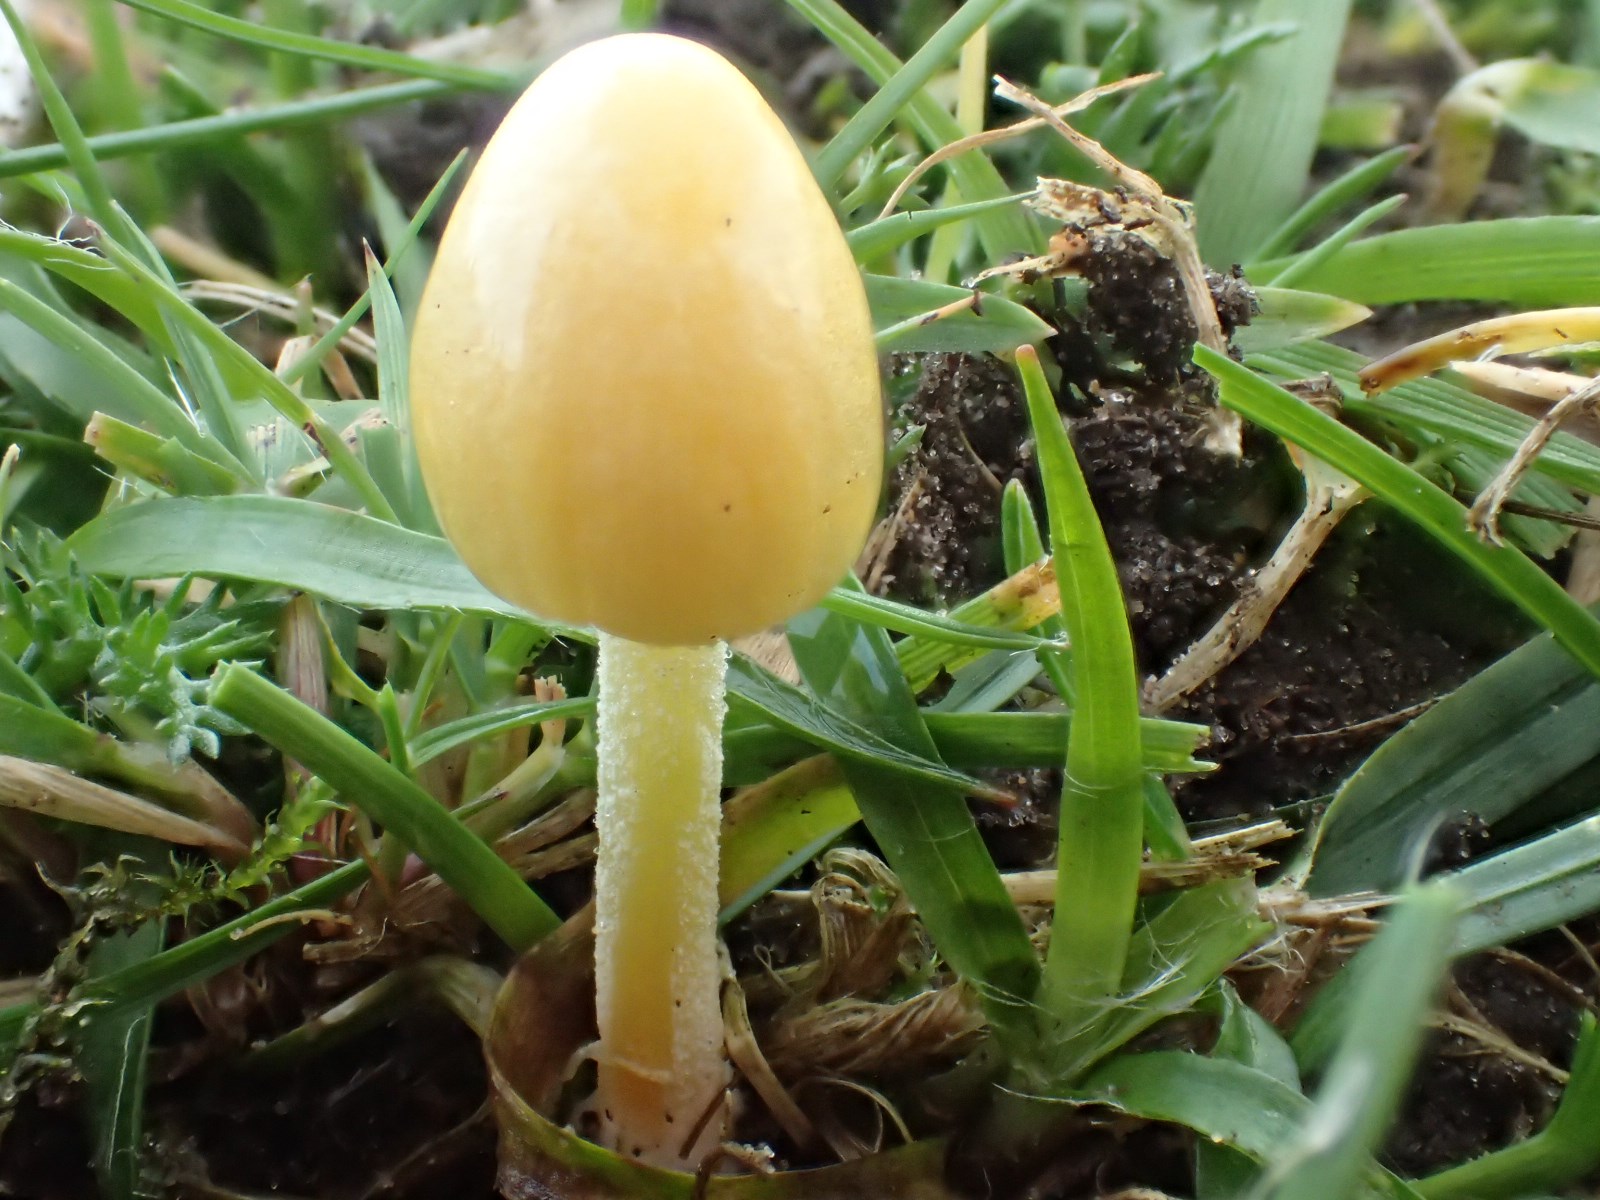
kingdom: Fungi
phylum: Basidiomycota
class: Agaricomycetes
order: Agaricales
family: Bolbitiaceae
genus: Bolbitius
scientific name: Bolbitius titubans
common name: almindelig gulhat
